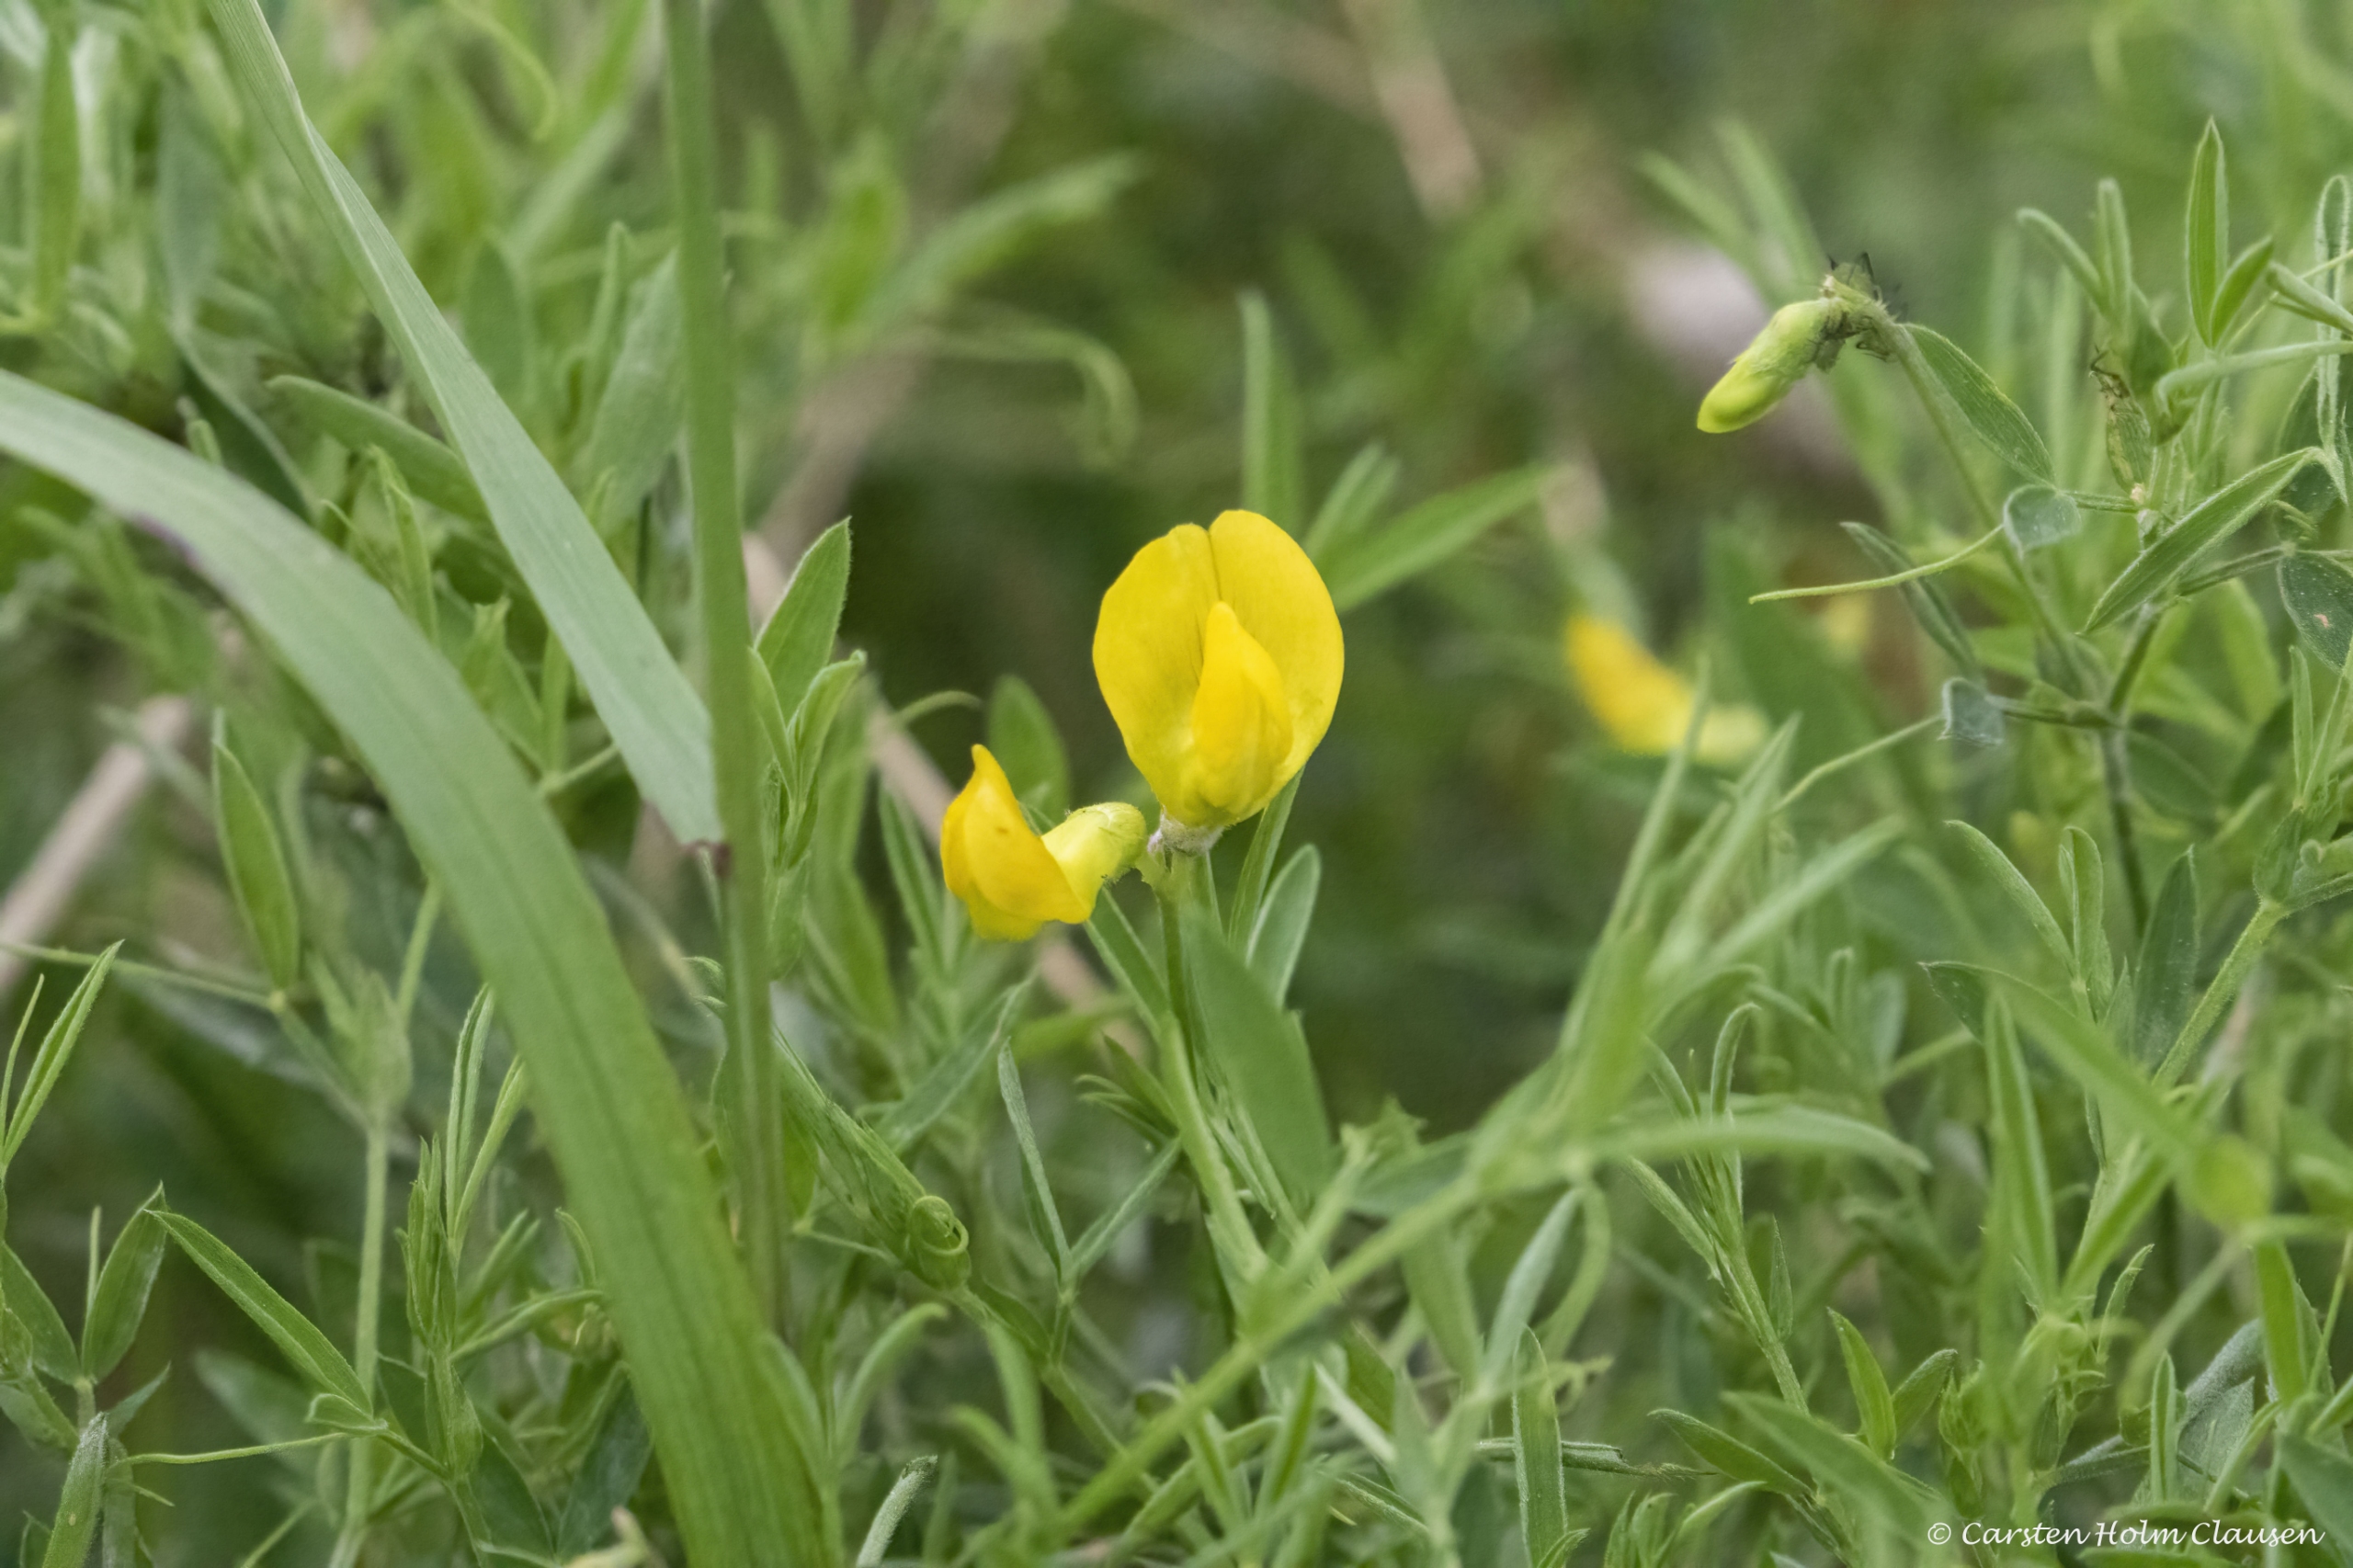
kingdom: Plantae
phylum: Tracheophyta
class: Magnoliopsida
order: Fabales
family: Fabaceae
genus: Lathyrus
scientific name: Lathyrus pratensis
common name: Gul fladbælg
